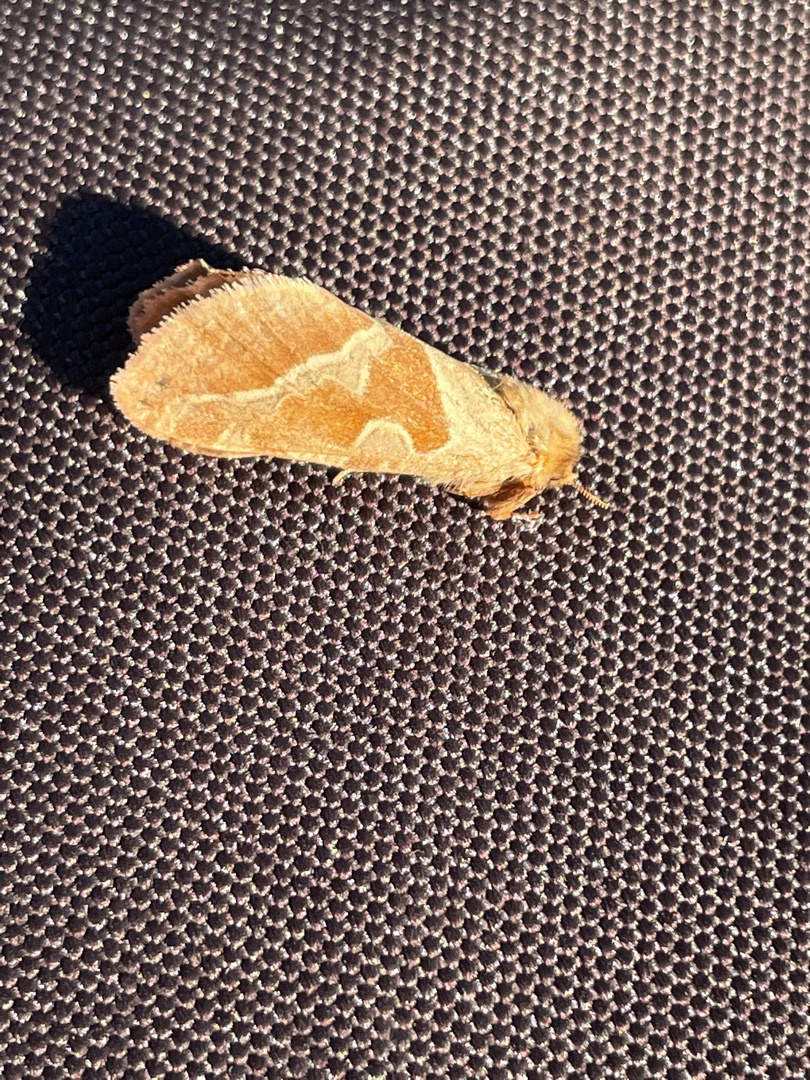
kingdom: Animalia
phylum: Arthropoda
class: Insecta
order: Lepidoptera
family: Hepialidae
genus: Triodia
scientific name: Triodia sylvina
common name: Skræpperodæder
